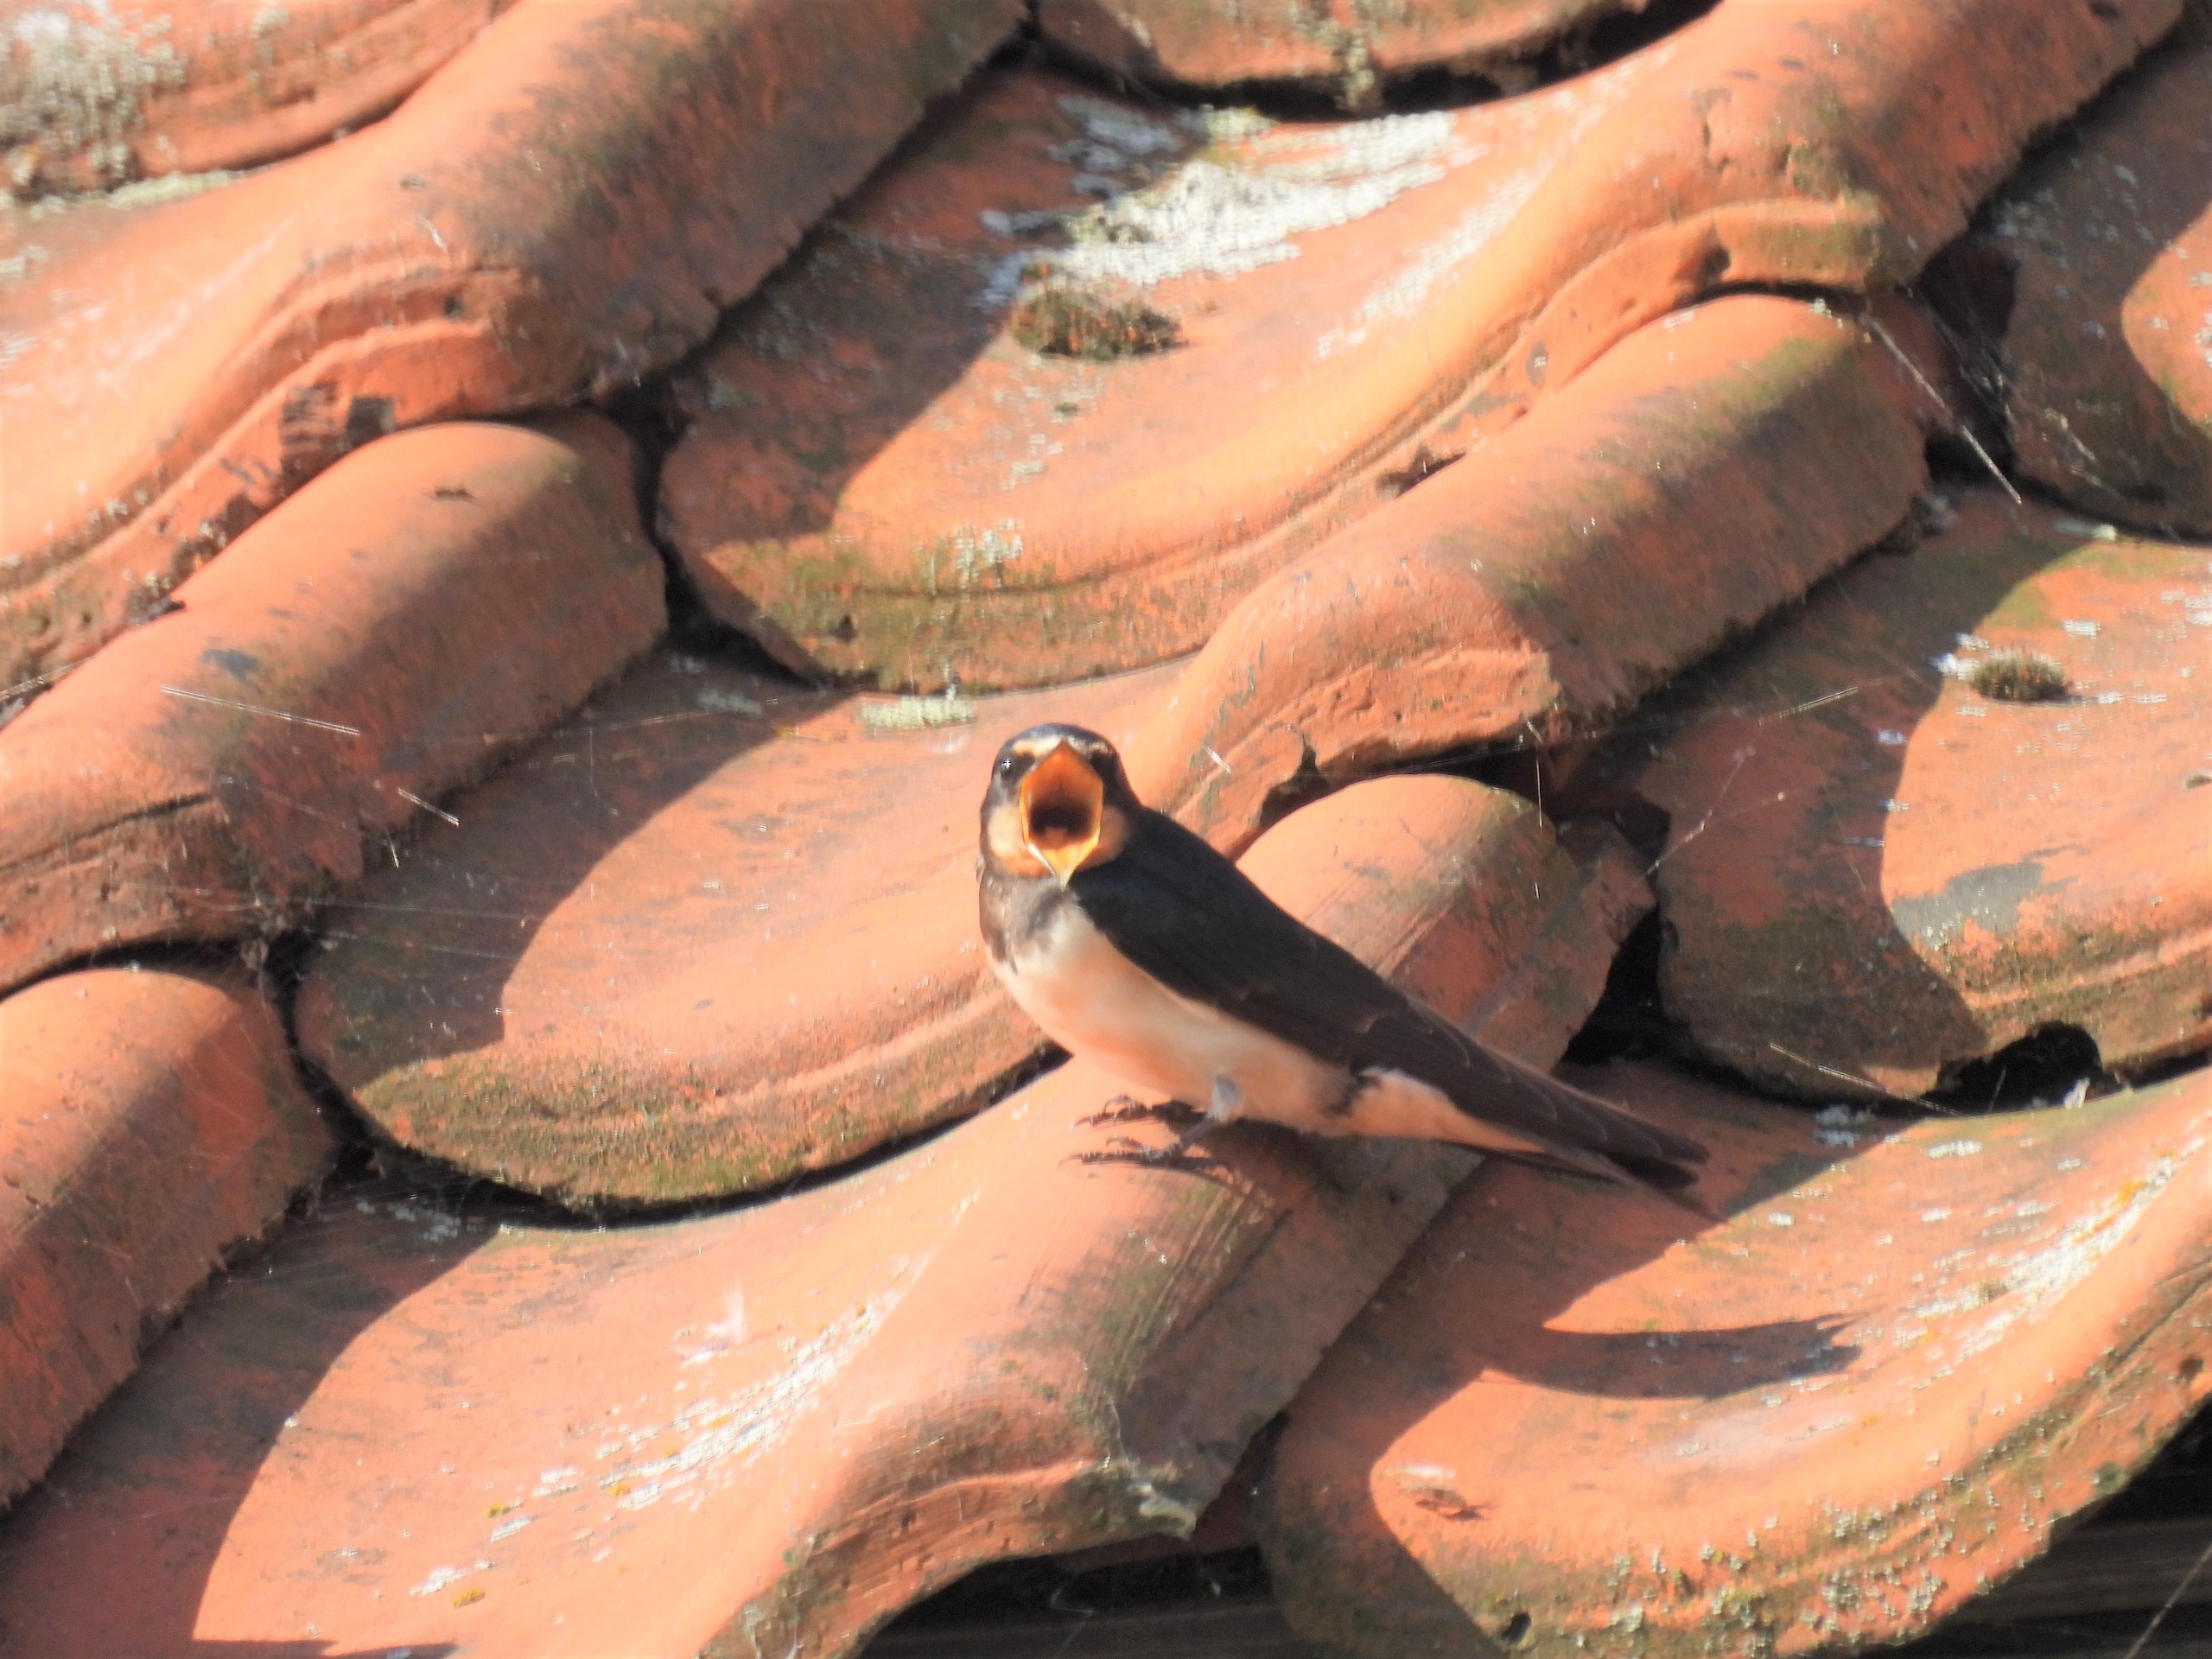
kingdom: Animalia
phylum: Chordata
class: Aves
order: Passeriformes
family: Hirundinidae
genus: Hirundo
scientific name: Hirundo rustica
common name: Landsvale
